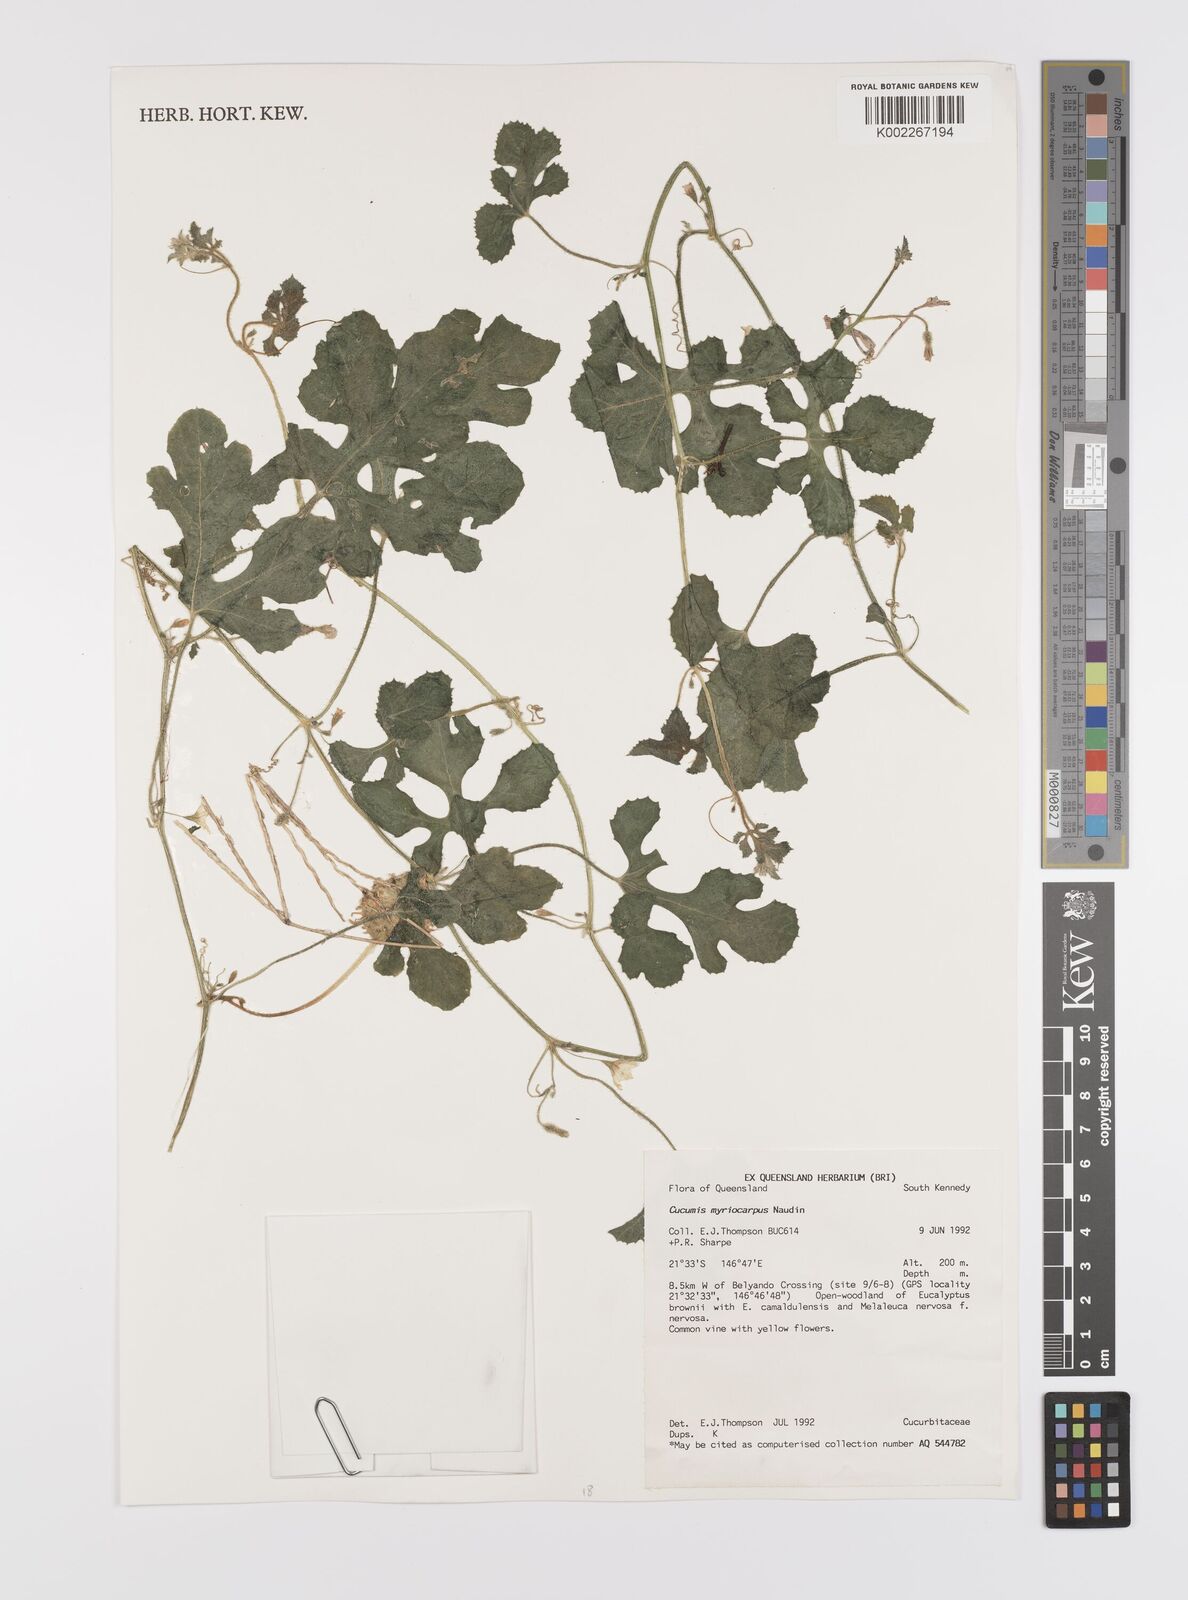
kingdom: Plantae
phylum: Tracheophyta
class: Magnoliopsida
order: Cucurbitales
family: Cucurbitaceae
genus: Cucumis
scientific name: Cucumis myriocarpus
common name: Gooseberry cucumber
